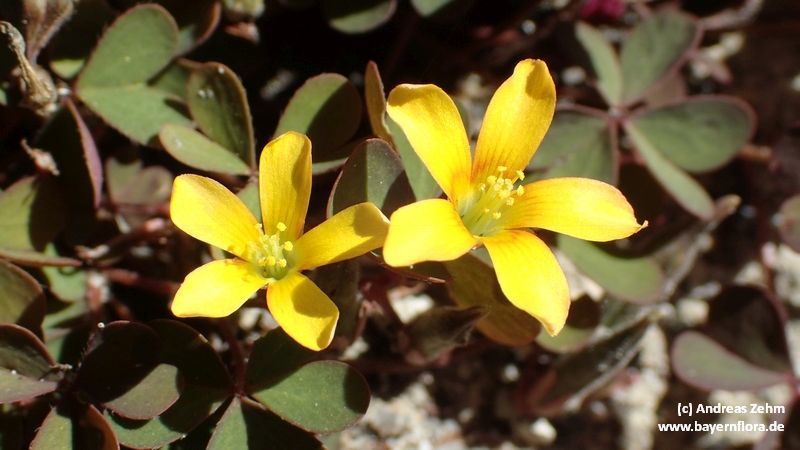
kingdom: Plantae
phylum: Tracheophyta
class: Magnoliopsida
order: Oxalidales
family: Oxalidaceae
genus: Oxalis
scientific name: Oxalis corniculata
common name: Procumbent yellow-sorrel
